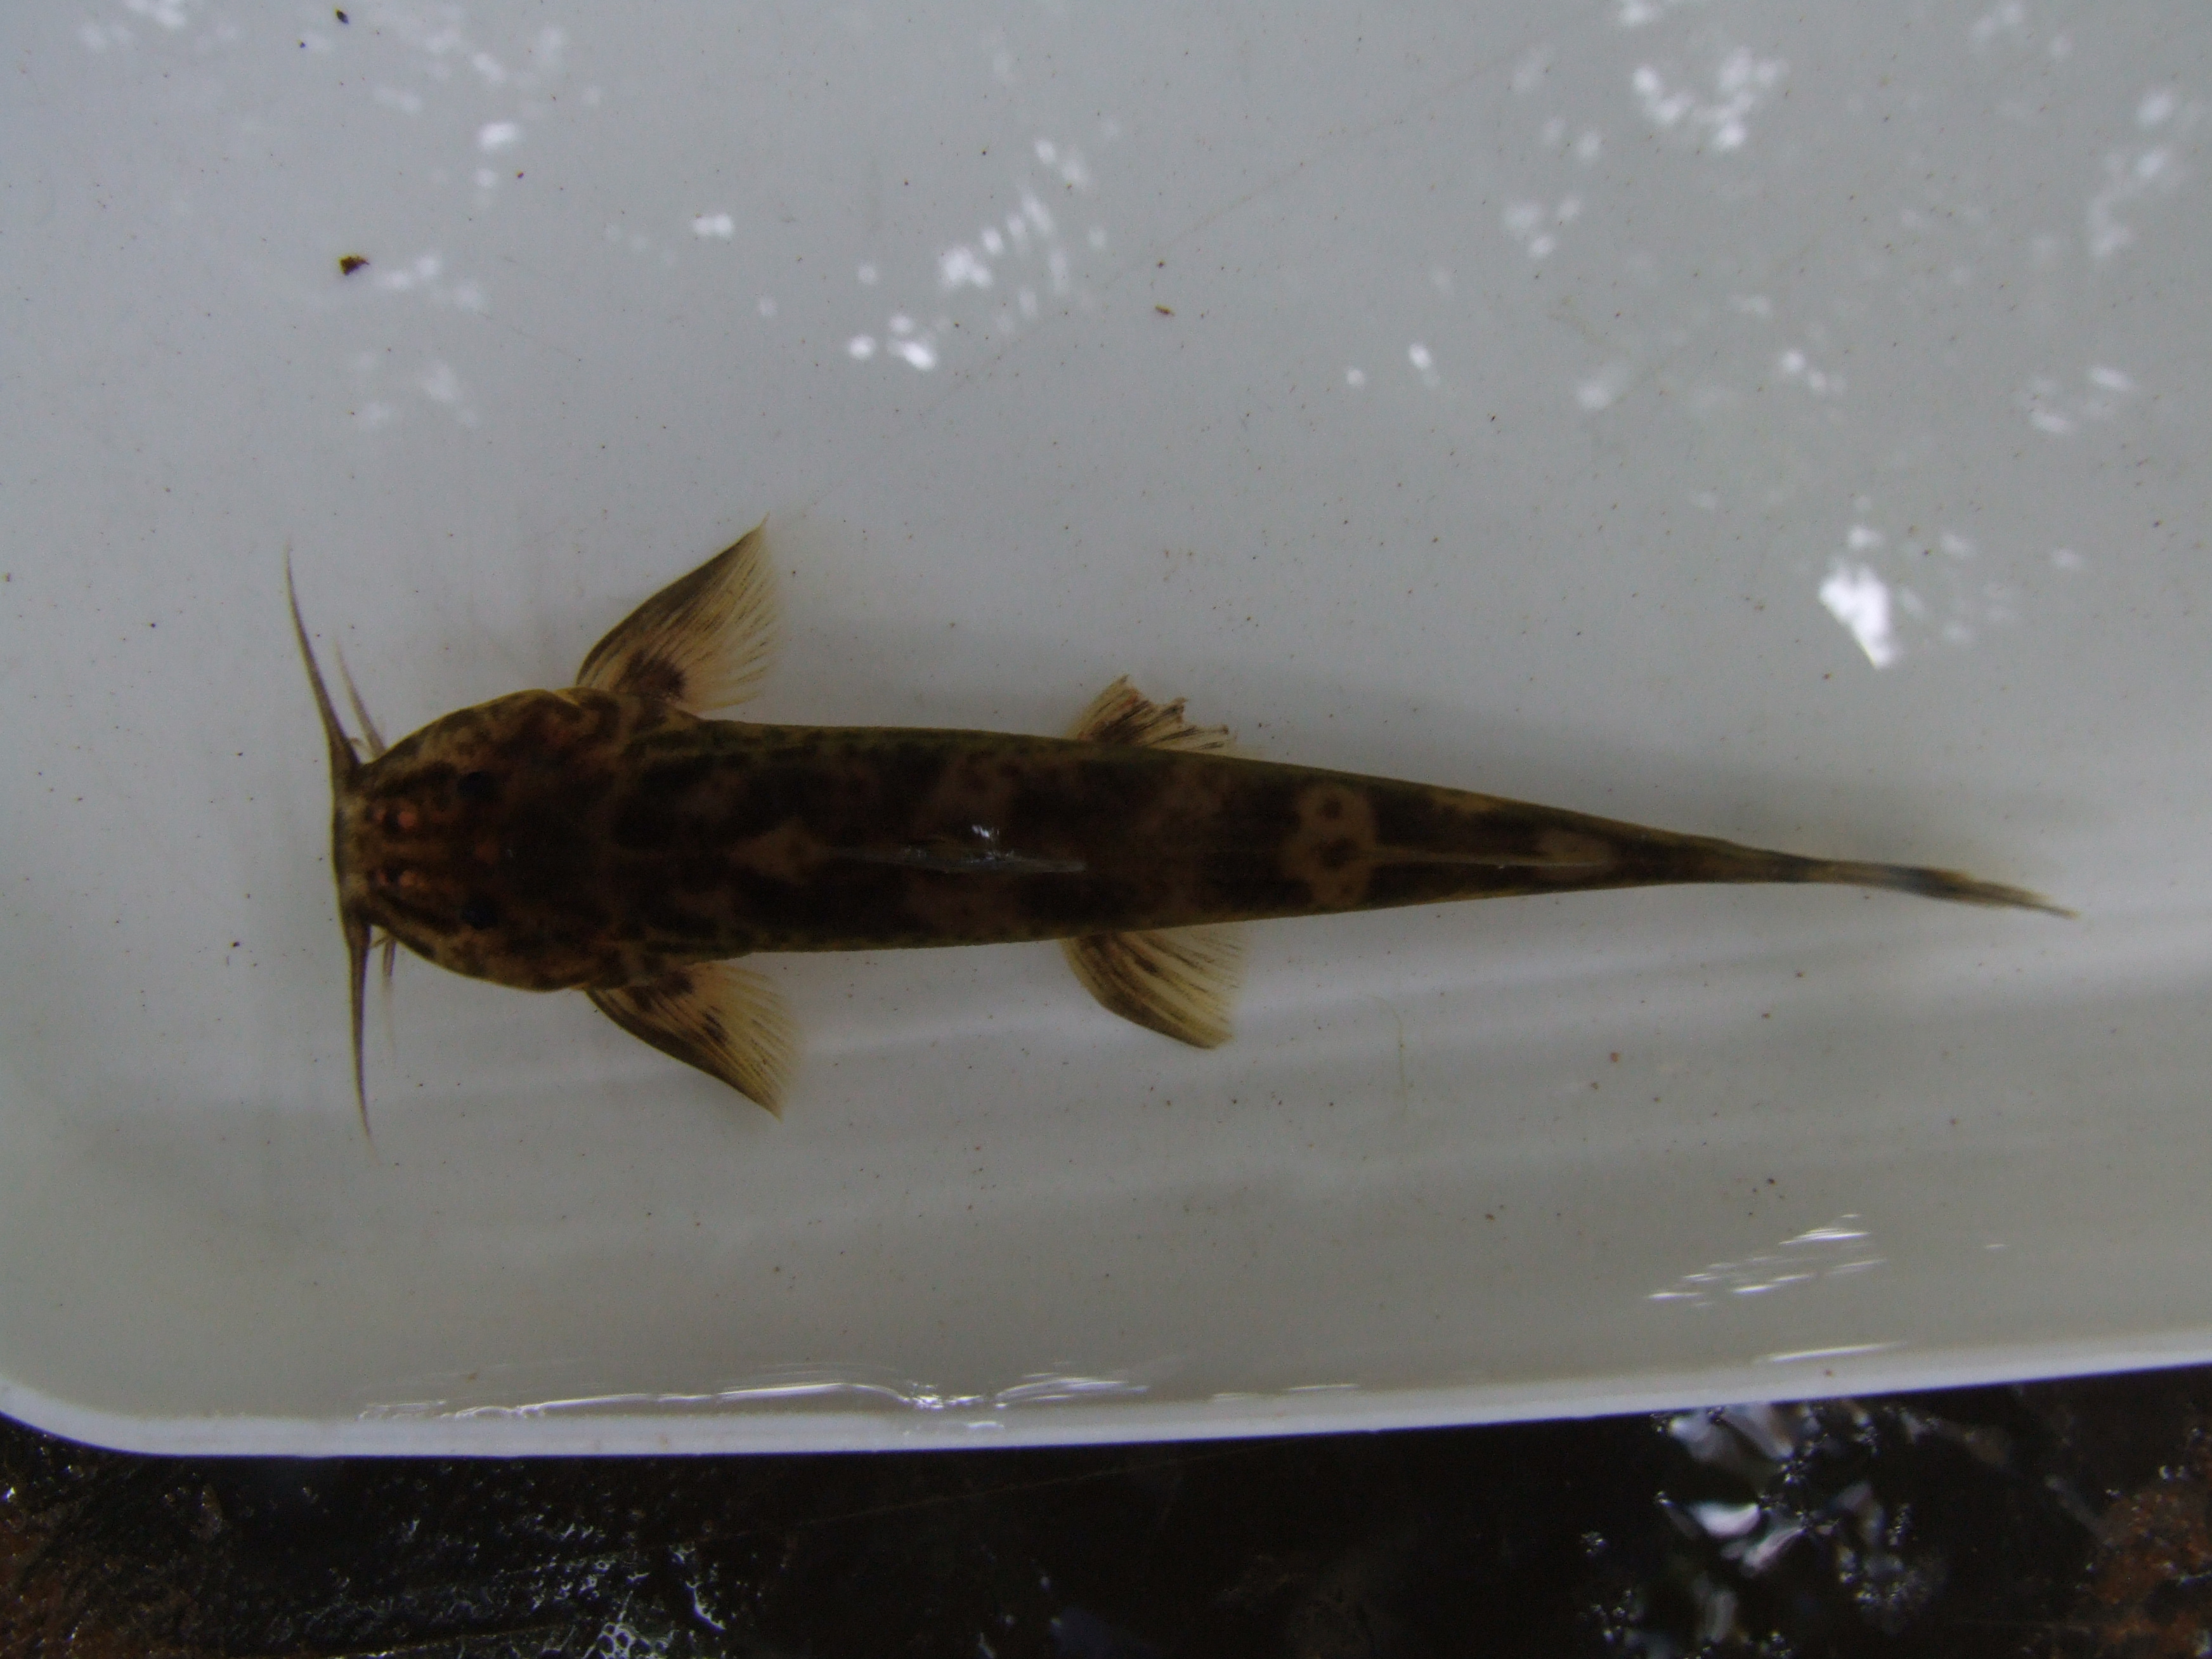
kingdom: Animalia
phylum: Chordata
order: Siluriformes
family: Amphiliidae
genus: Amphilius
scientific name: Amphilius uranoscopus
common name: Stargazer mountain catfish
